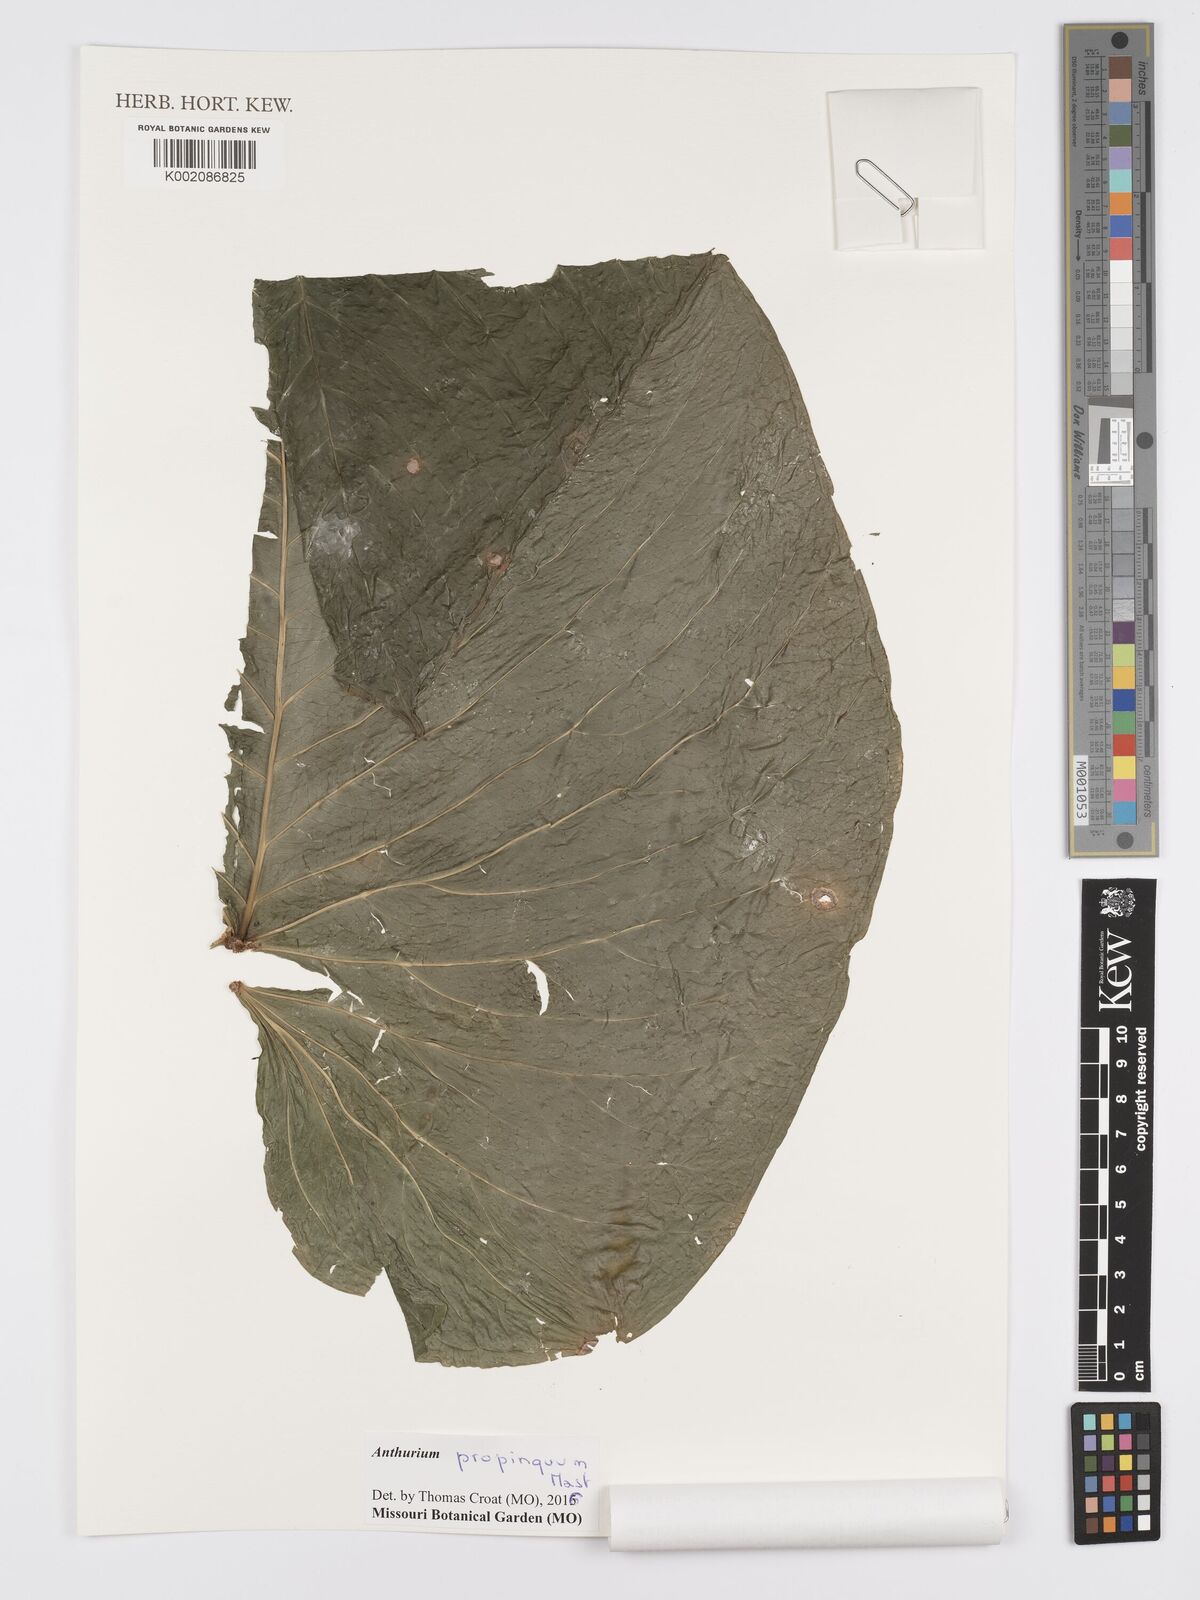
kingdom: Plantae
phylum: Tracheophyta
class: Liliopsida
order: Alismatales
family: Araceae
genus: Anthurium
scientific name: Anthurium cuspidatum
